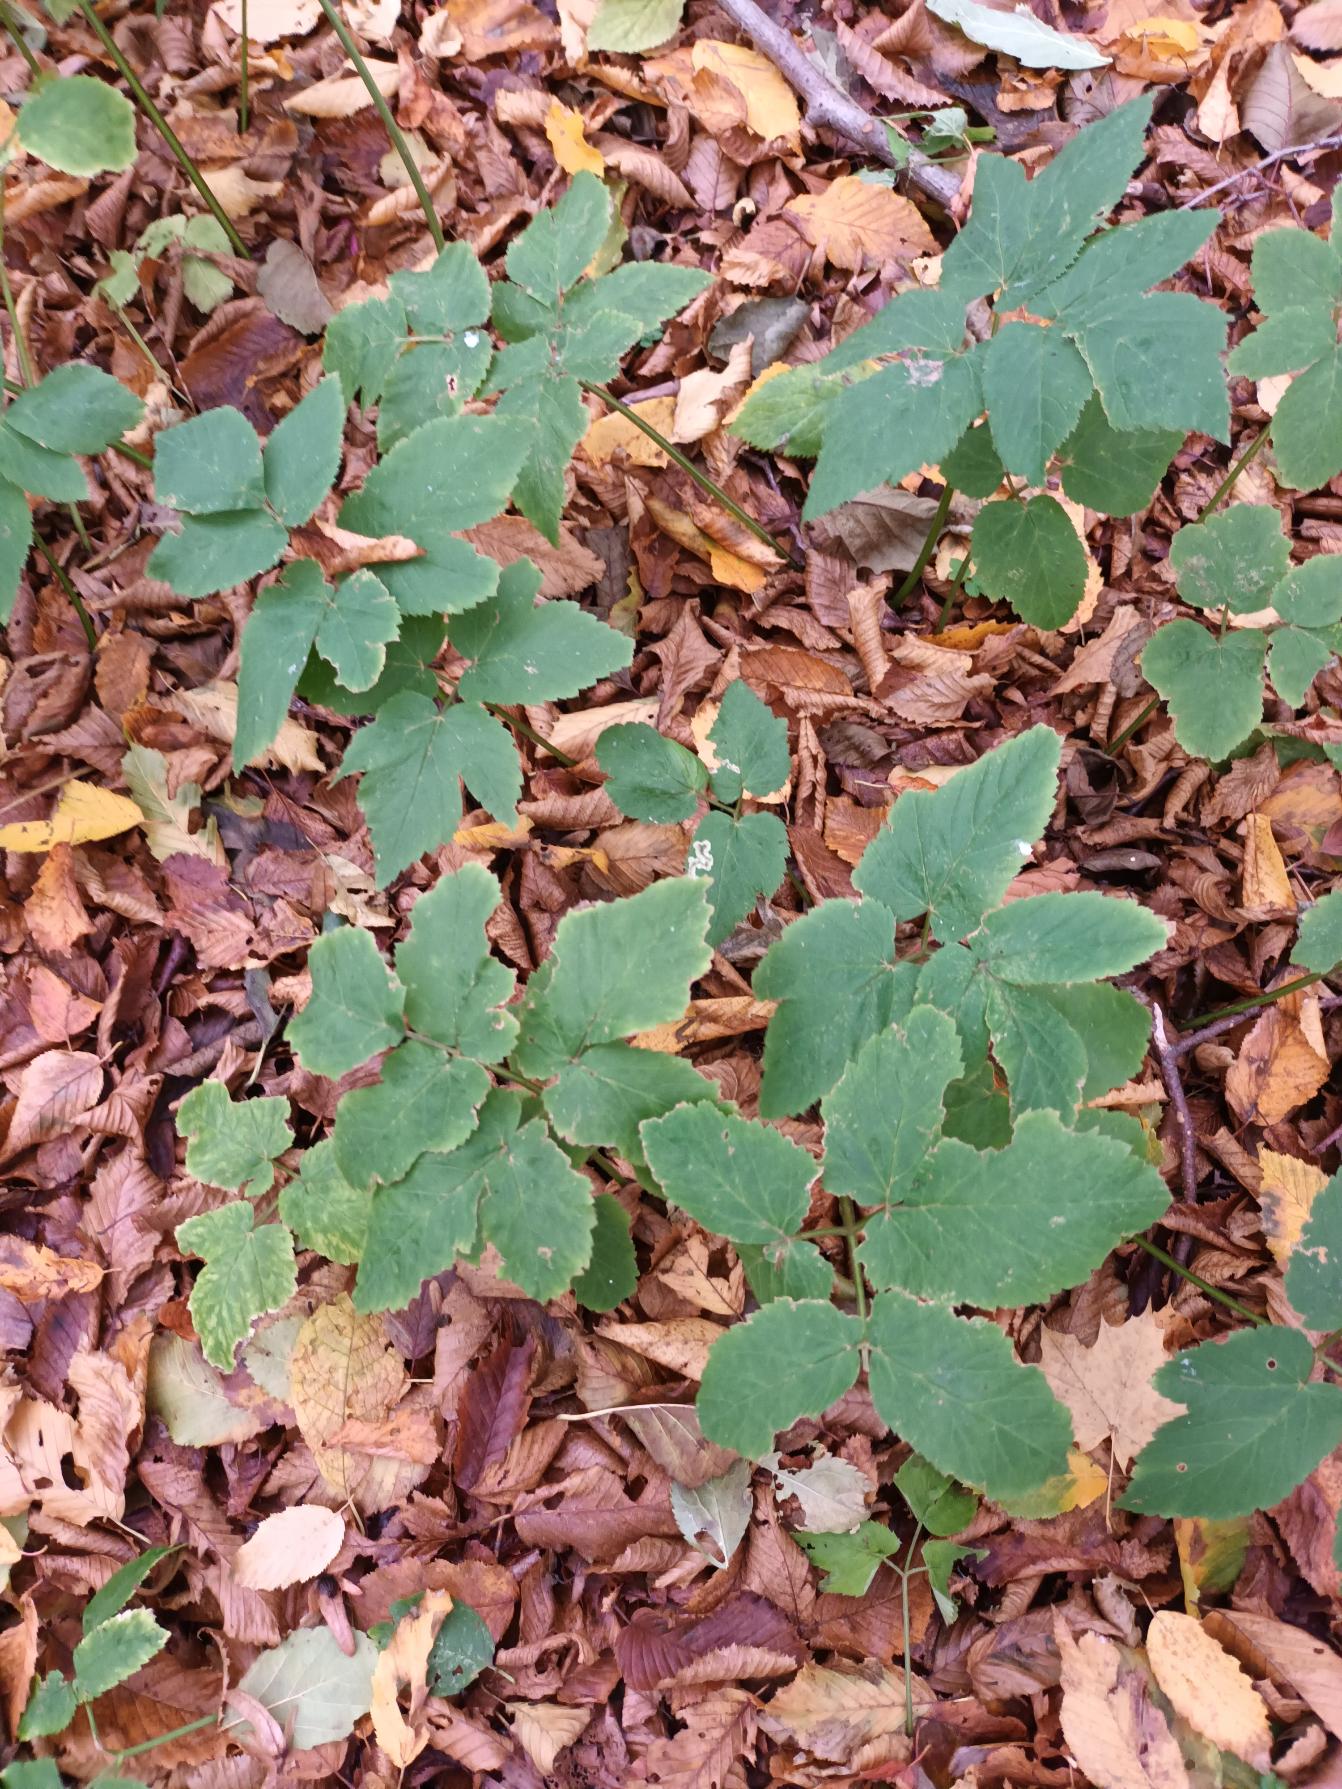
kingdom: Plantae
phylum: Tracheophyta
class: Magnoliopsida
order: Apiales
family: Apiaceae
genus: Aegopodium
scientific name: Aegopodium podagraria
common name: Skvalderkål
